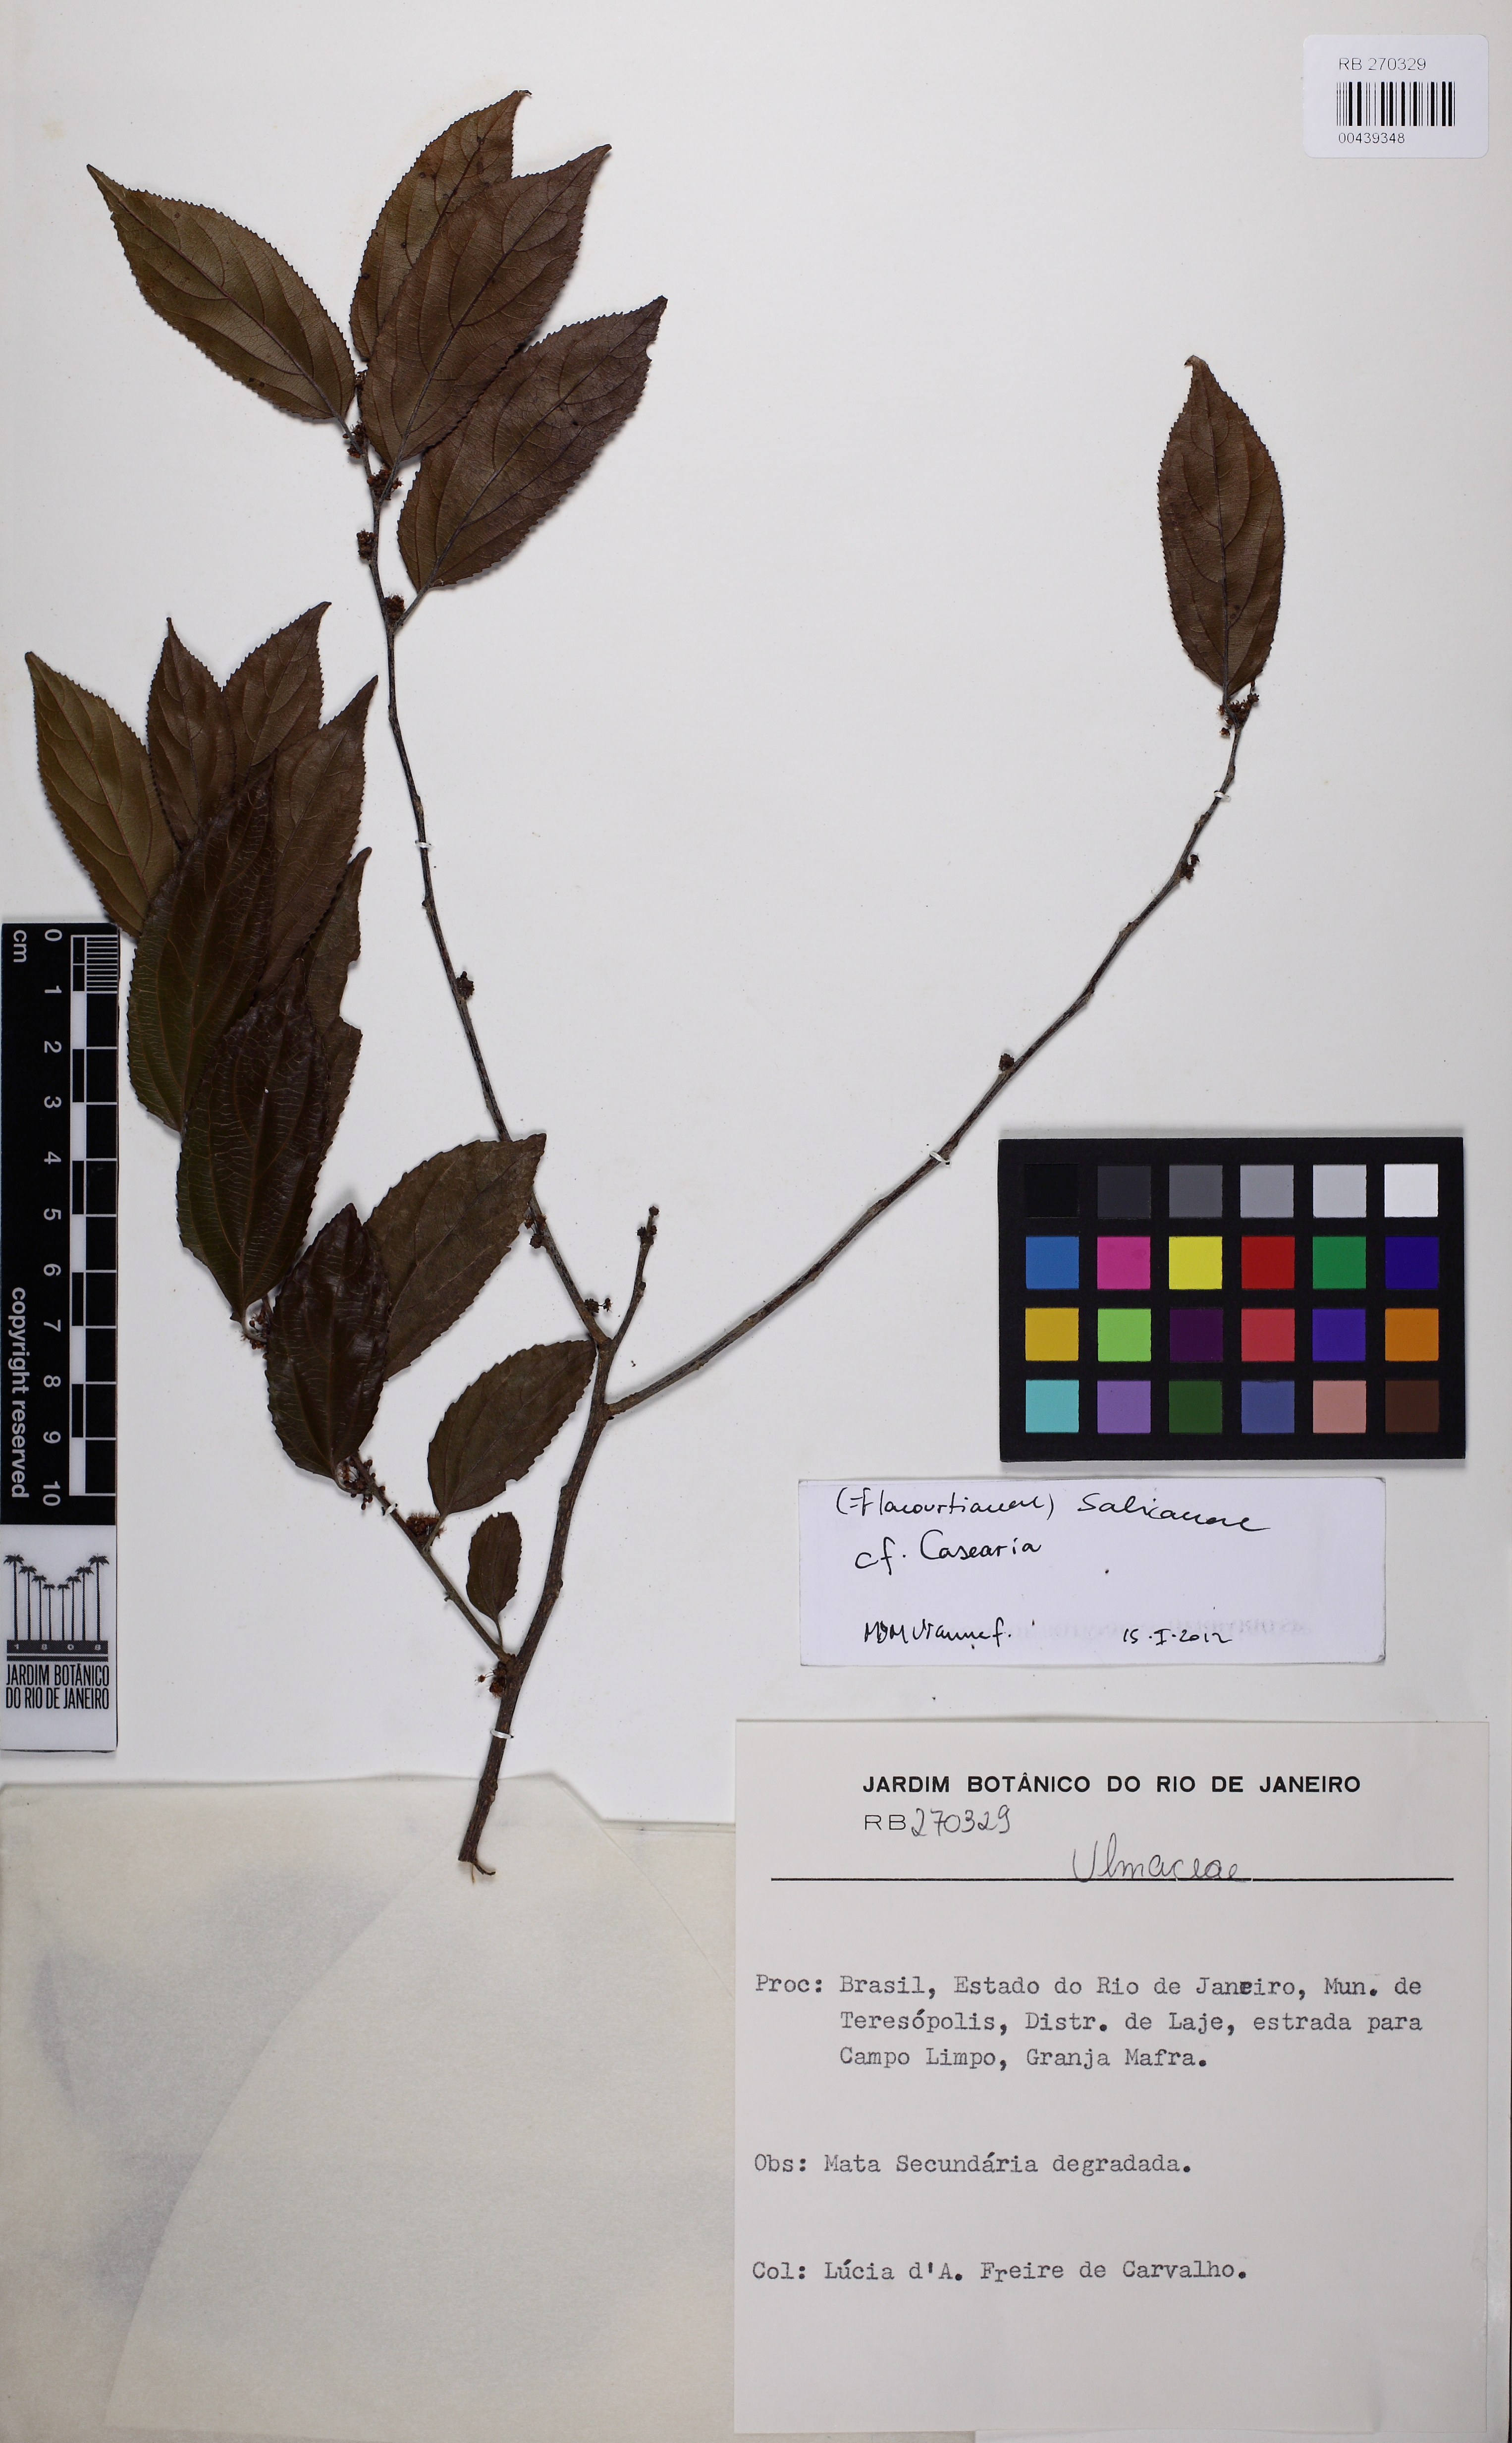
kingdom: Plantae
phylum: Tracheophyta
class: Magnoliopsida
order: Malpighiales
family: Salicaceae
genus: Casearia
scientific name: Casearia obliqua
